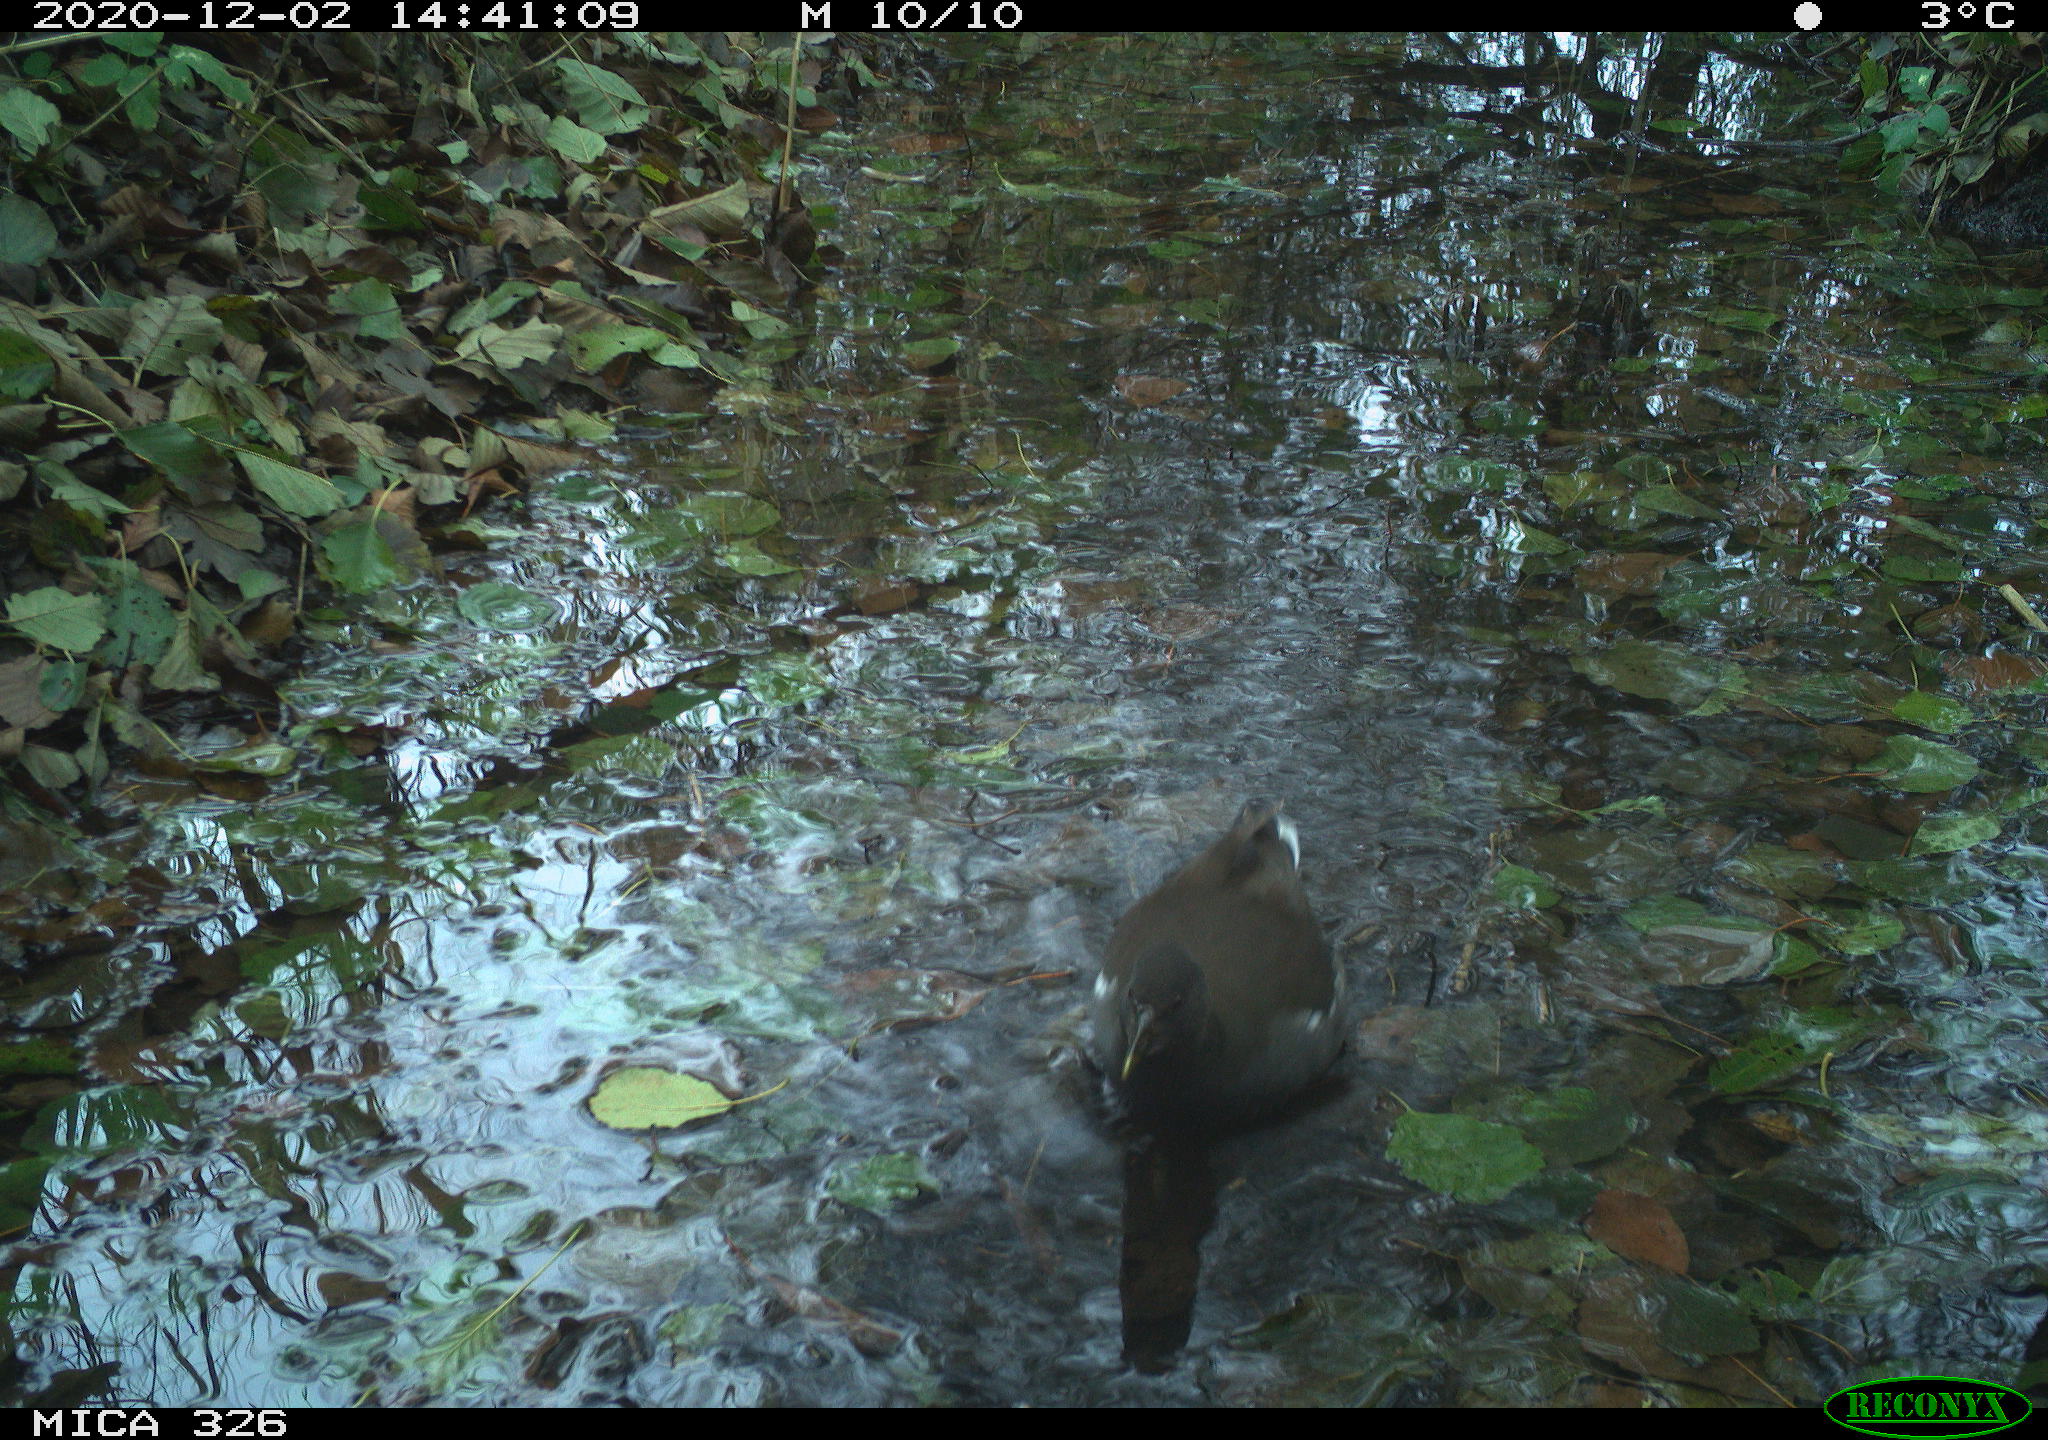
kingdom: Animalia
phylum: Chordata
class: Aves
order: Gruiformes
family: Rallidae
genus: Gallinula
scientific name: Gallinula chloropus
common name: Common moorhen
